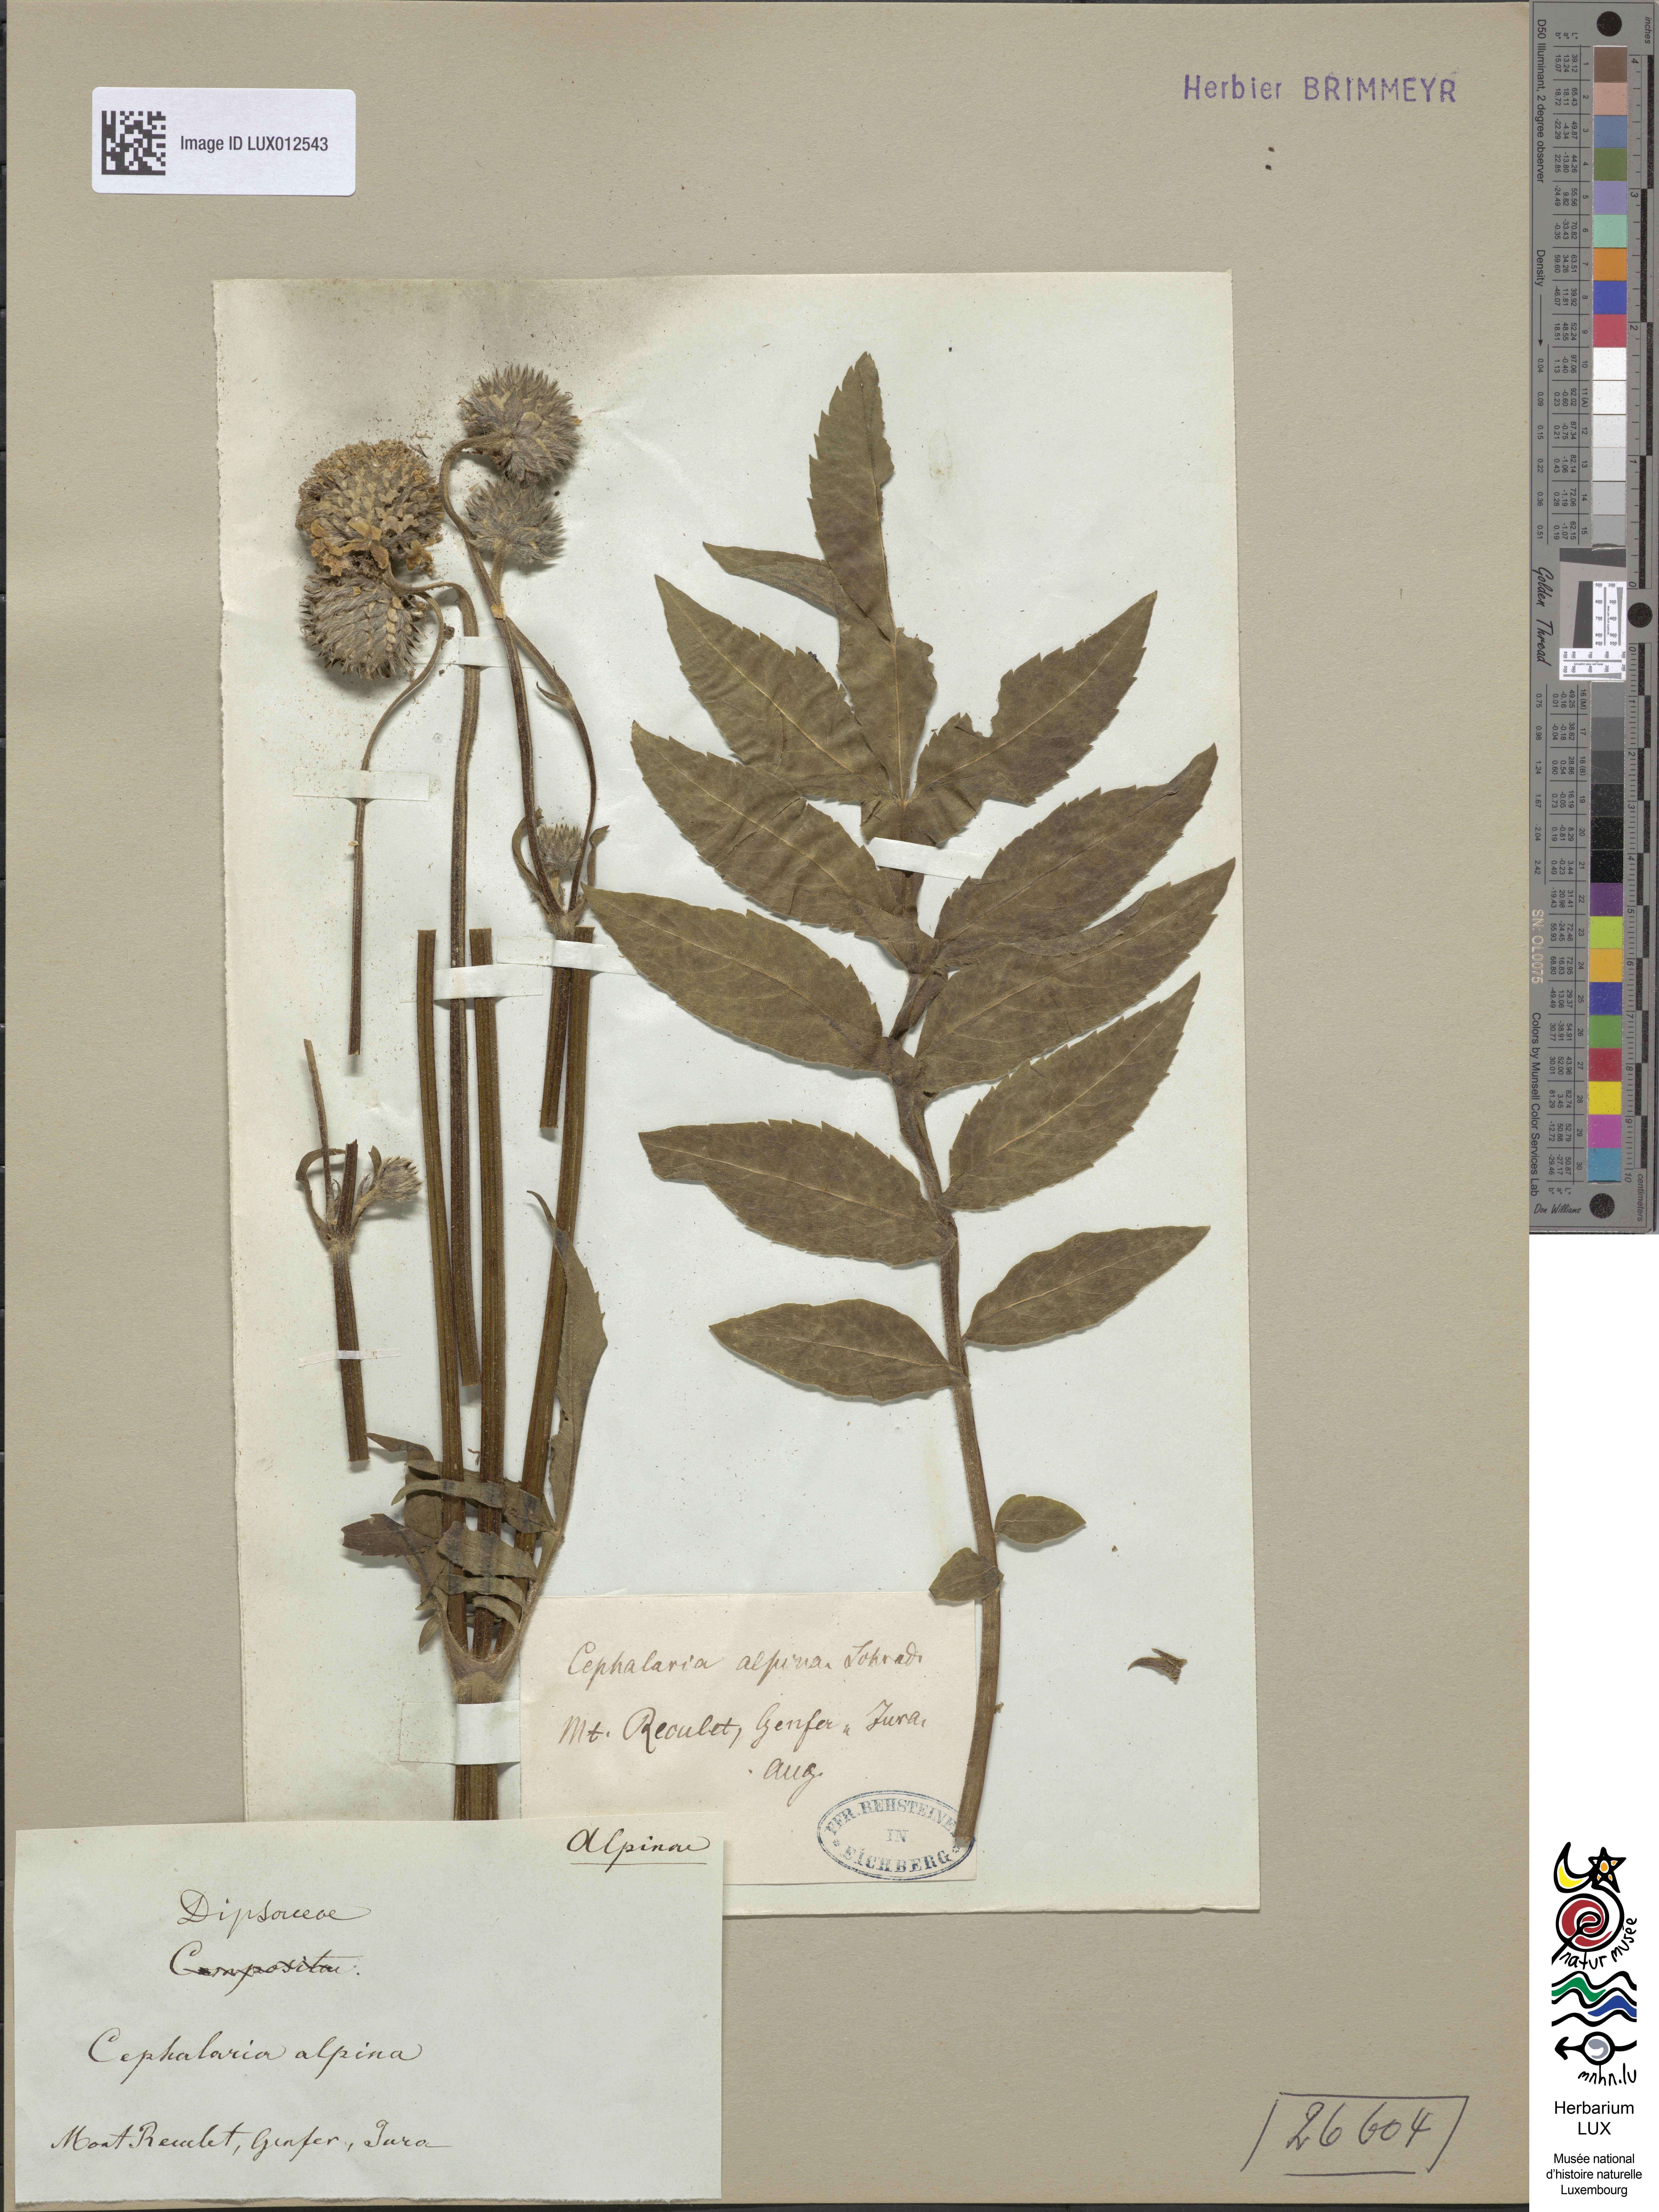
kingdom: Plantae
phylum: Tracheophyta
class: Magnoliopsida
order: Dipsacales
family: Caprifoliaceae
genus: Cephalaria
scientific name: Cephalaria alpina
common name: Alpine-scabious
